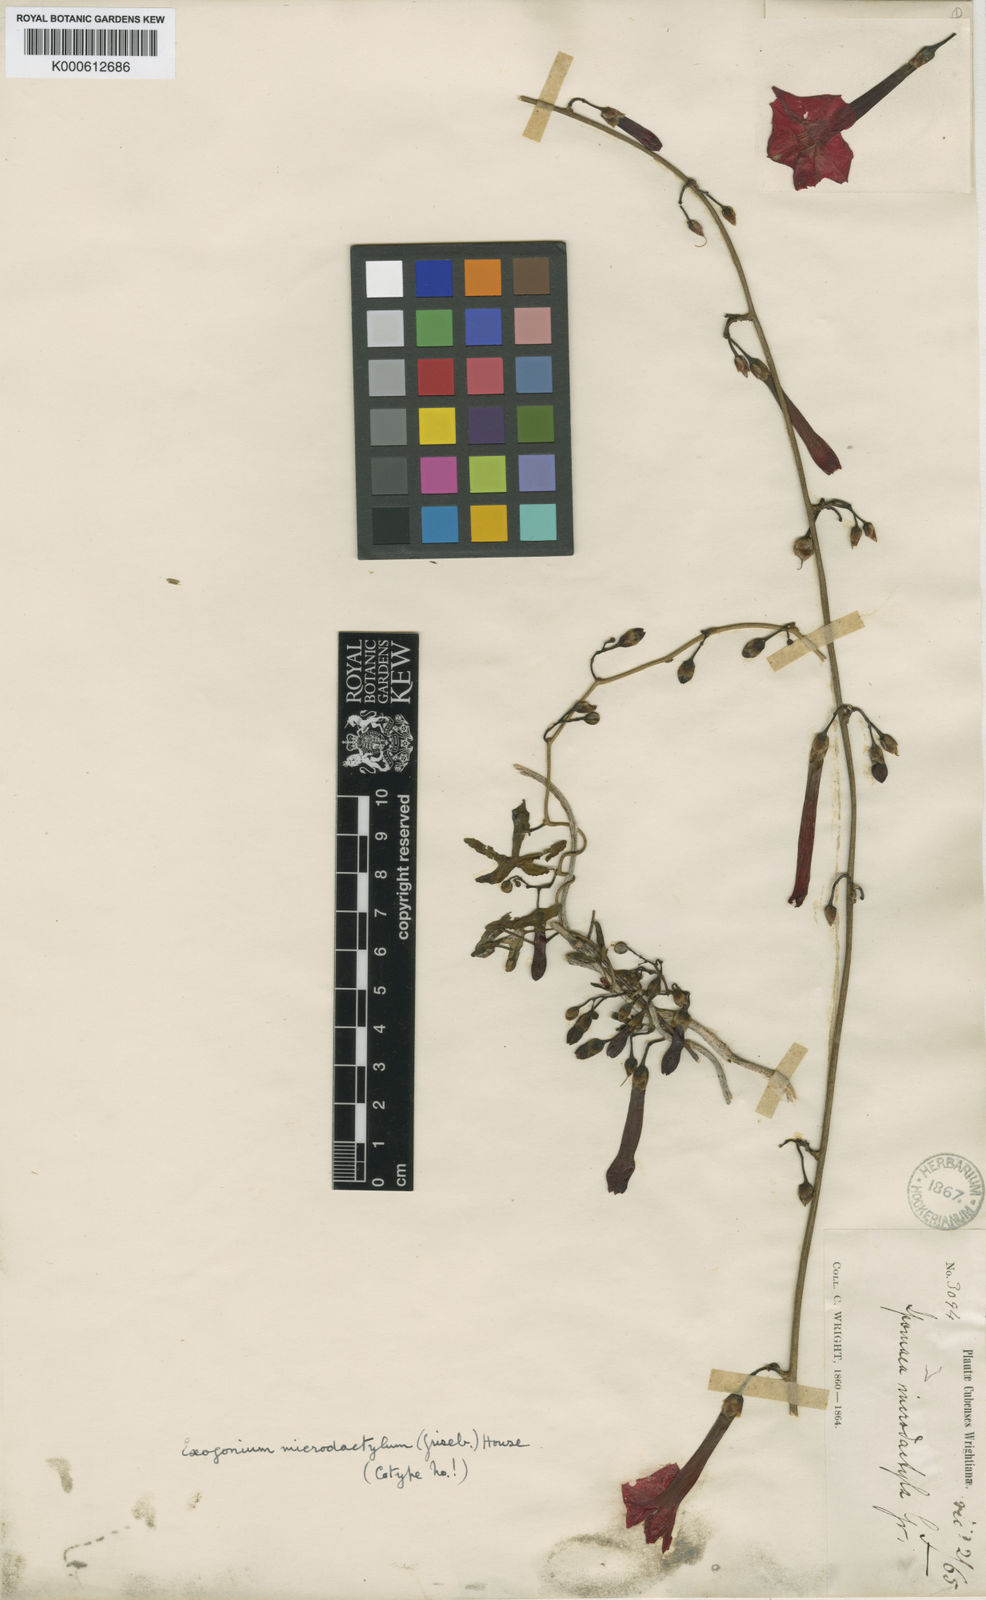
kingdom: Plantae
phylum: Tracheophyta
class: Magnoliopsida
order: Solanales
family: Convolvulaceae
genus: Ipomoea
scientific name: Ipomoea microdactyla
